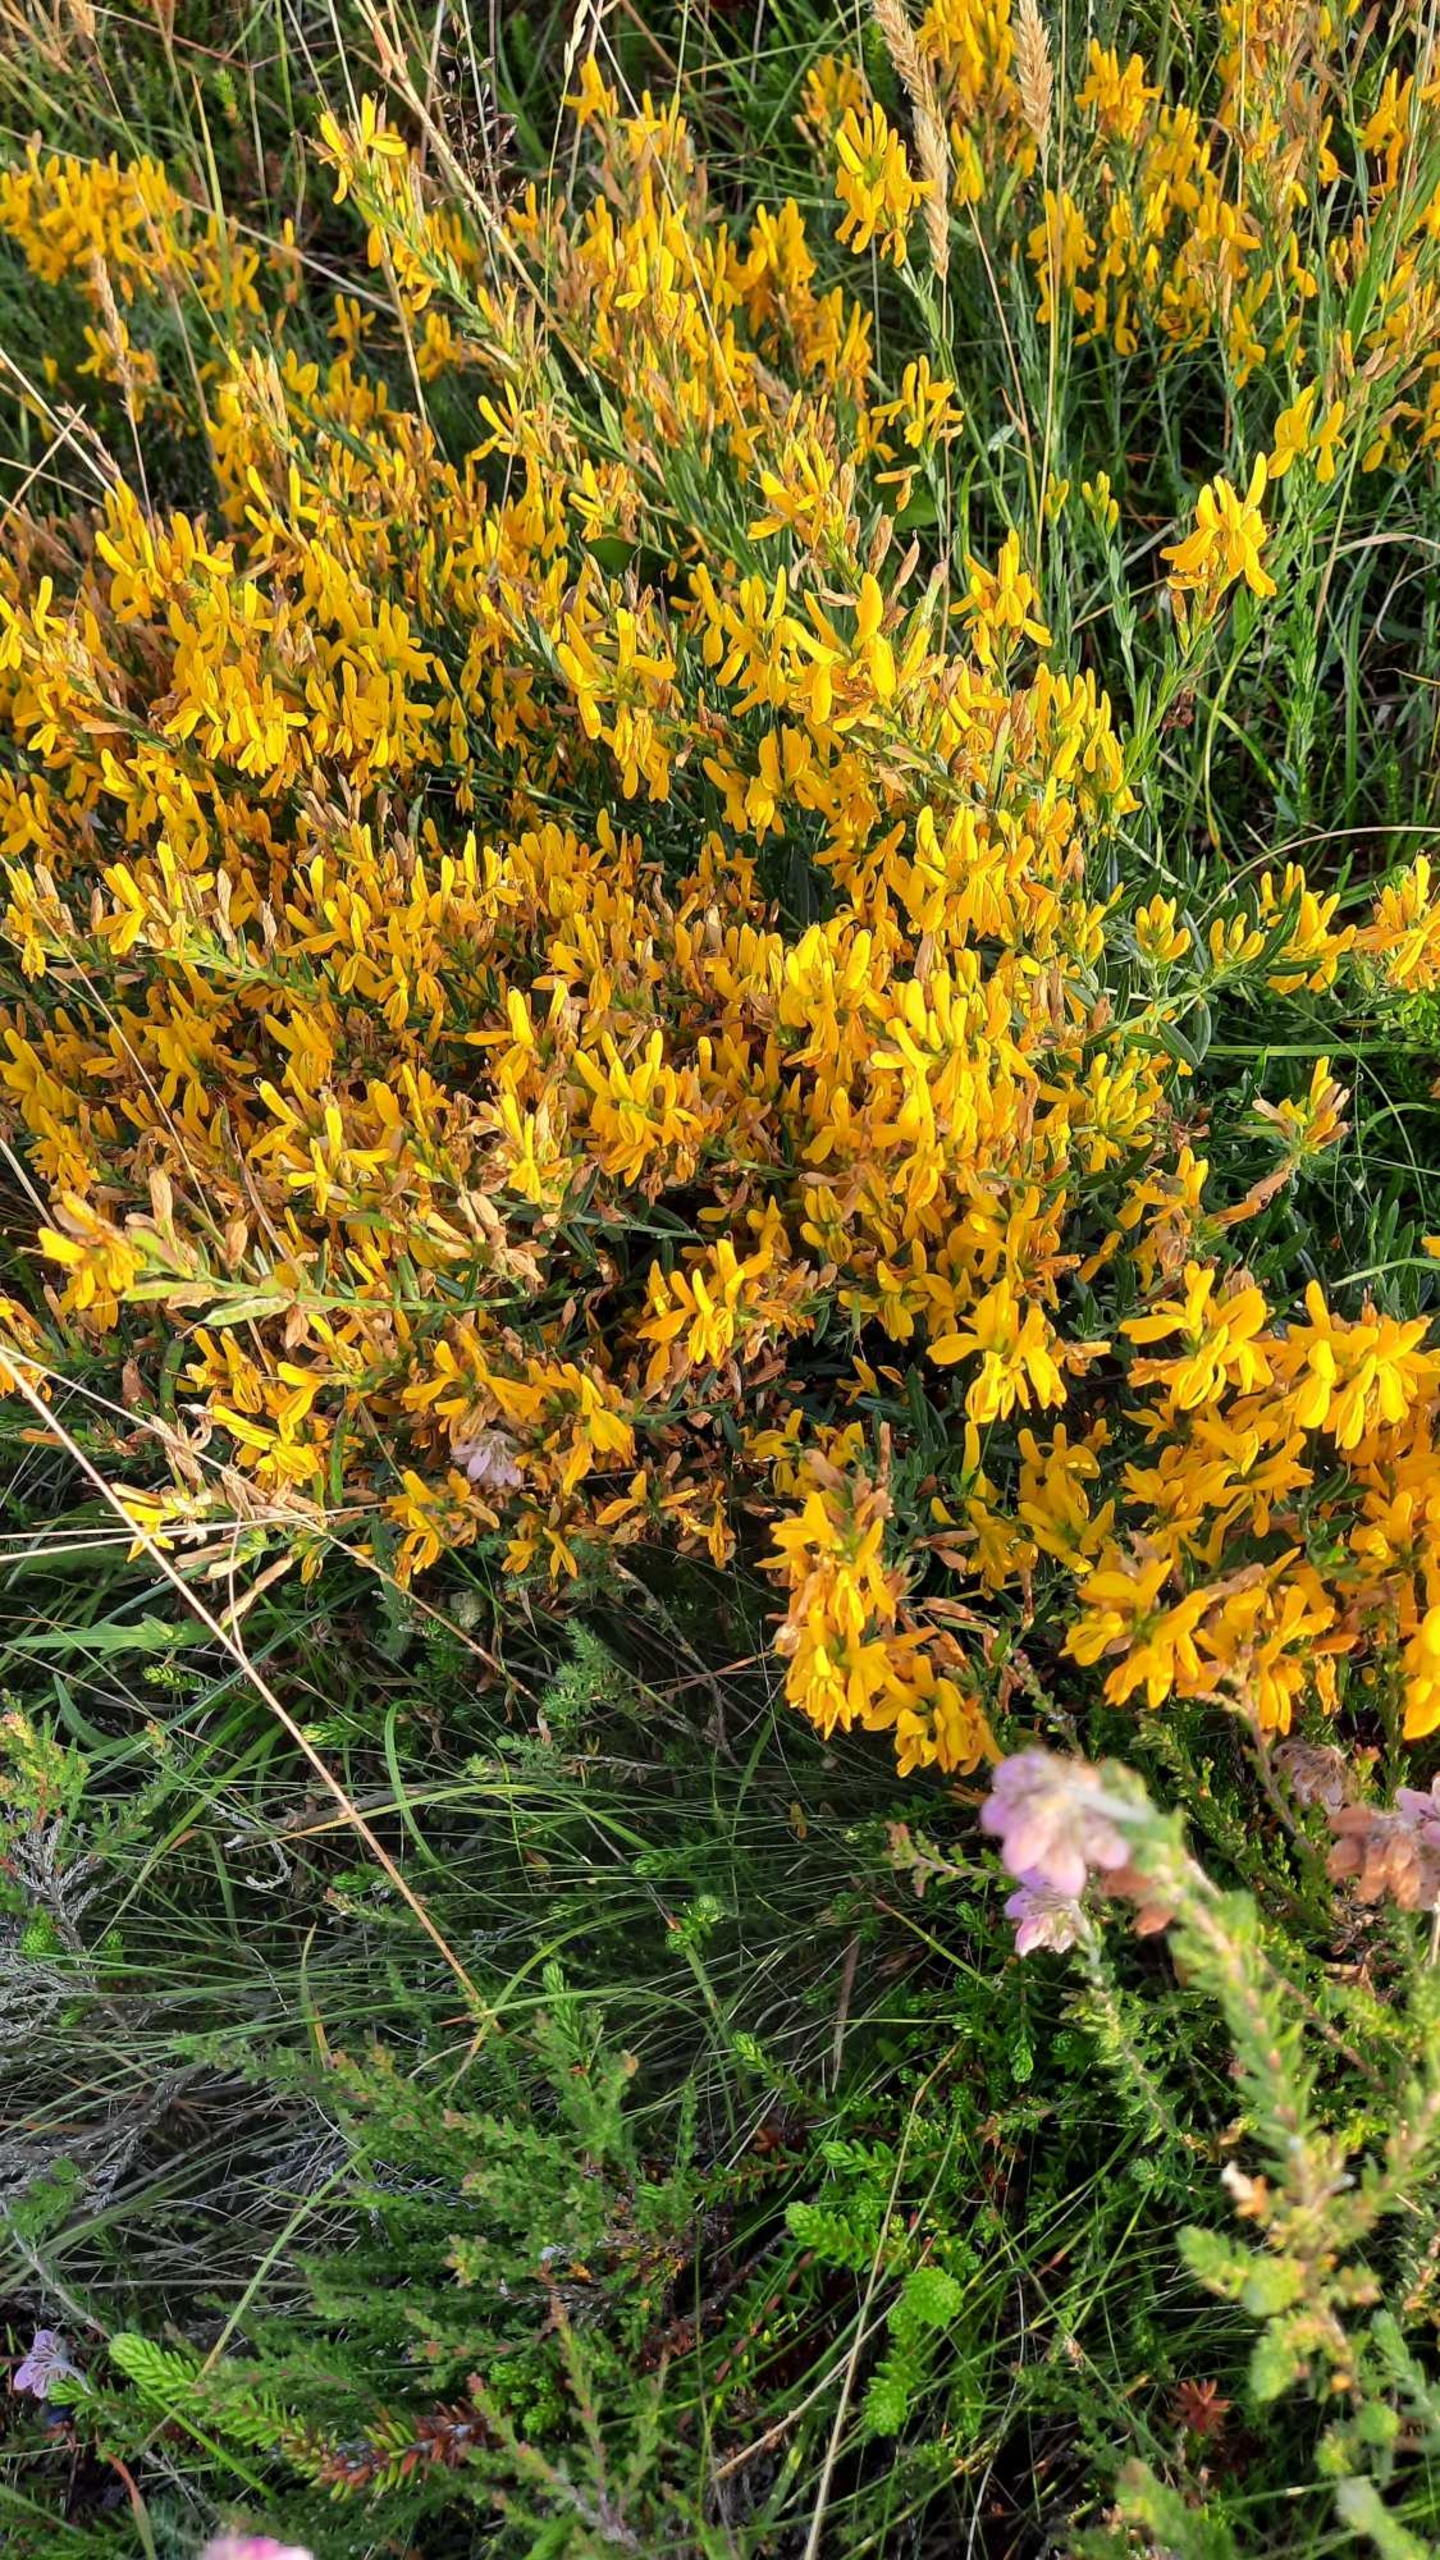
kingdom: Plantae
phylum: Tracheophyta
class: Magnoliopsida
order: Fabales
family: Fabaceae
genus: Genista
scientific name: Genista tinctoria
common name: Farve-visse
